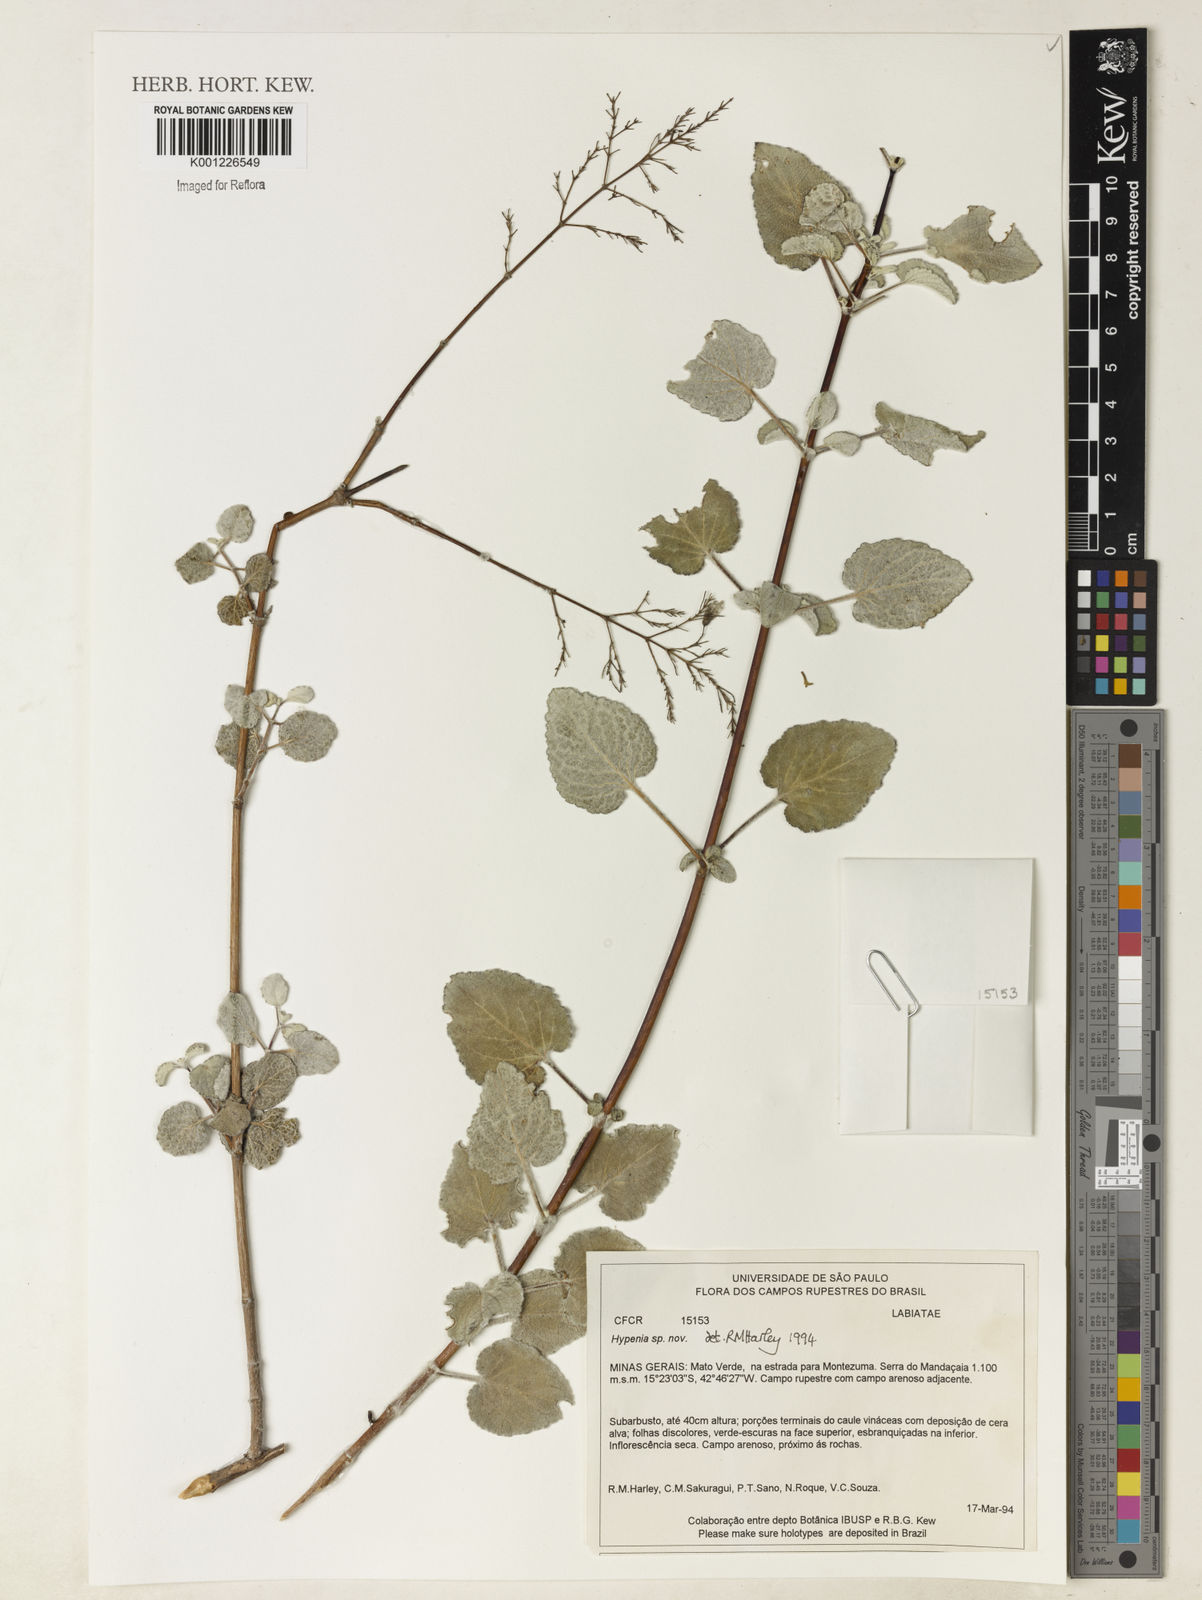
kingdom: Plantae
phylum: Tracheophyta
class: Magnoliopsida
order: Lamiales
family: Lamiaceae
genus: Hypenia
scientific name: Hypenia
